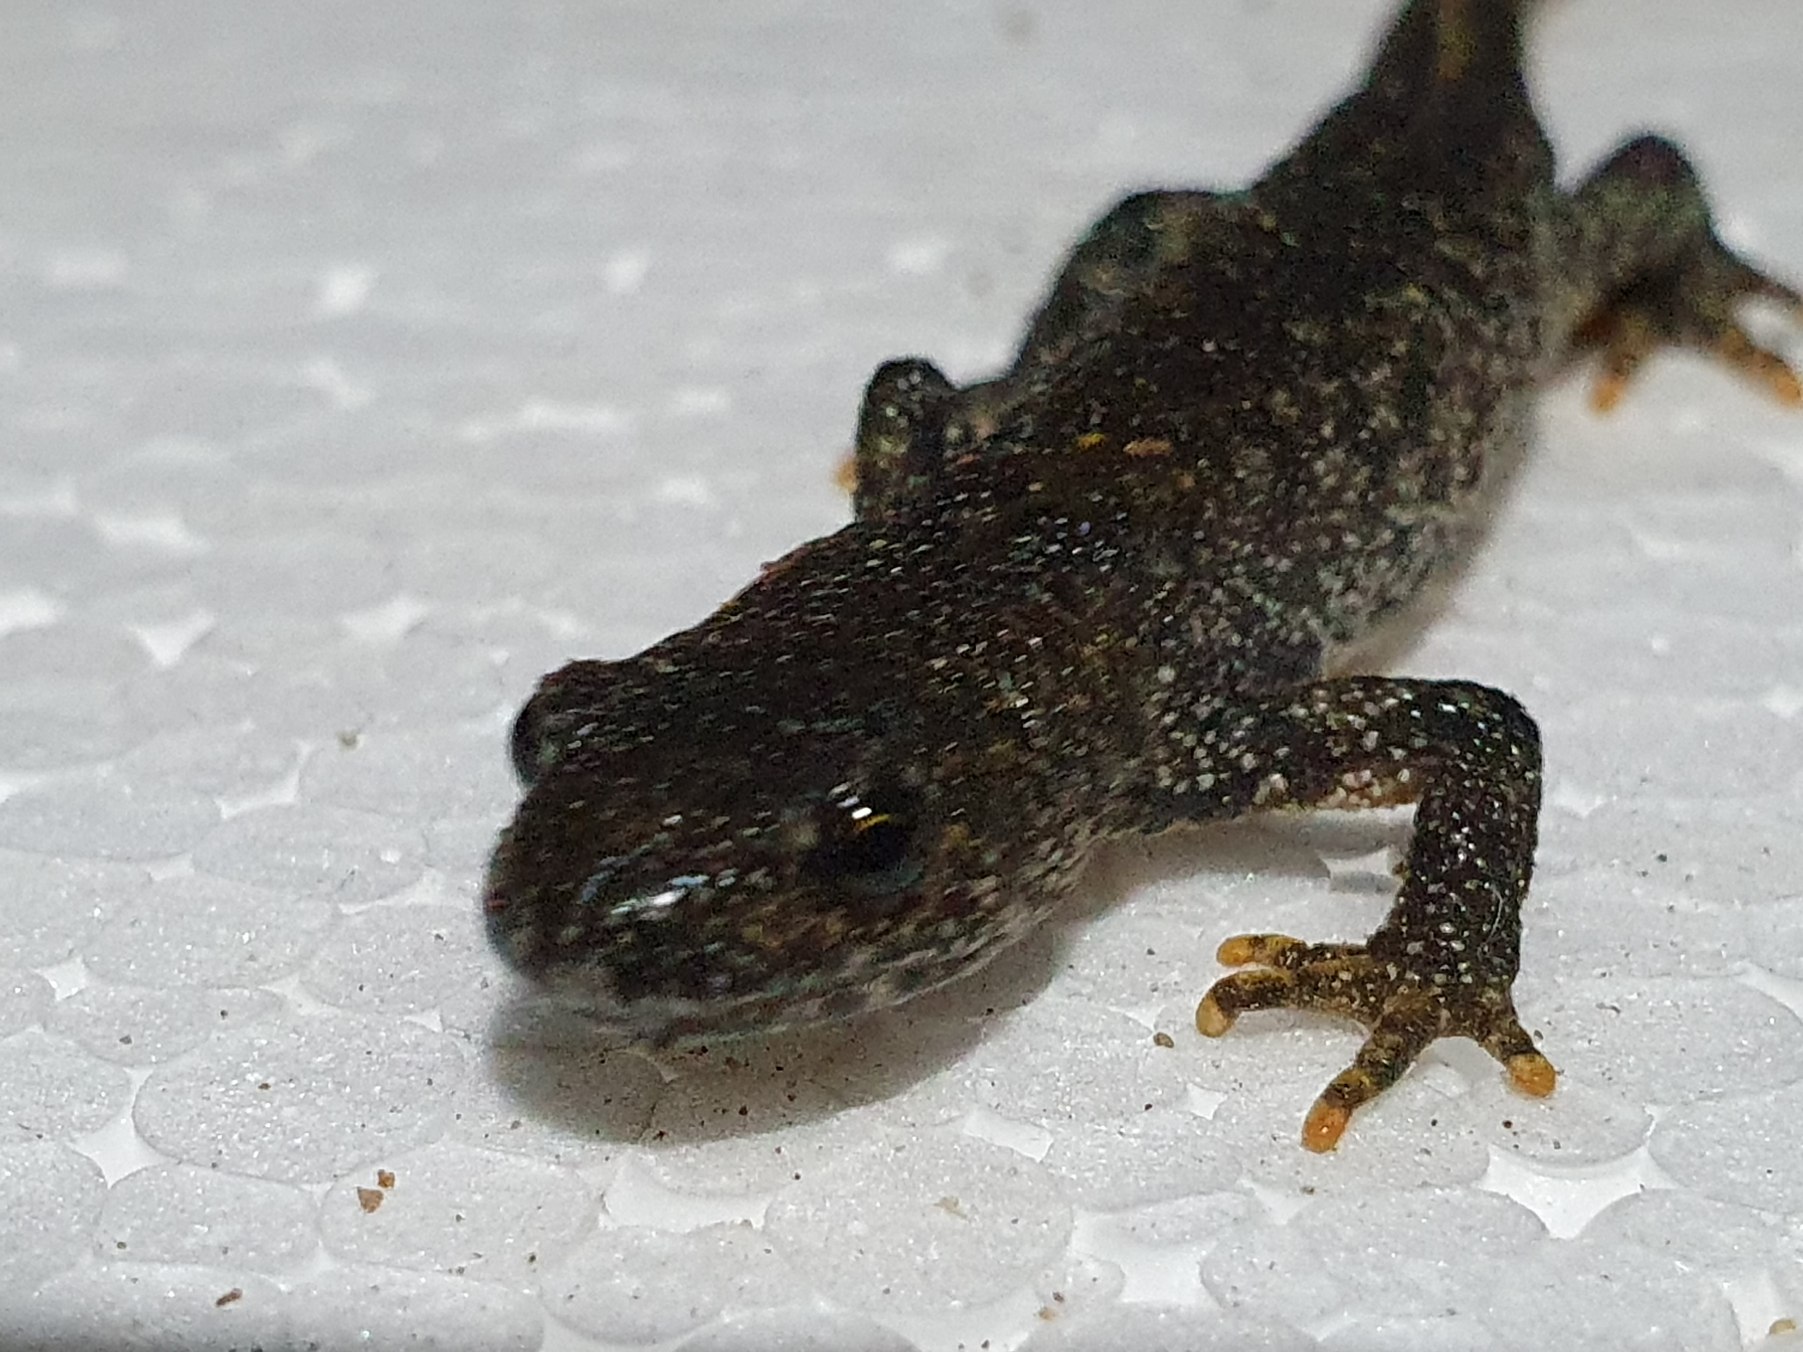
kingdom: Animalia
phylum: Chordata
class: Amphibia
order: Caudata
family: Salamandridae
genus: Triturus
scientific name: Triturus cristatus
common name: Stor vandsalamander
